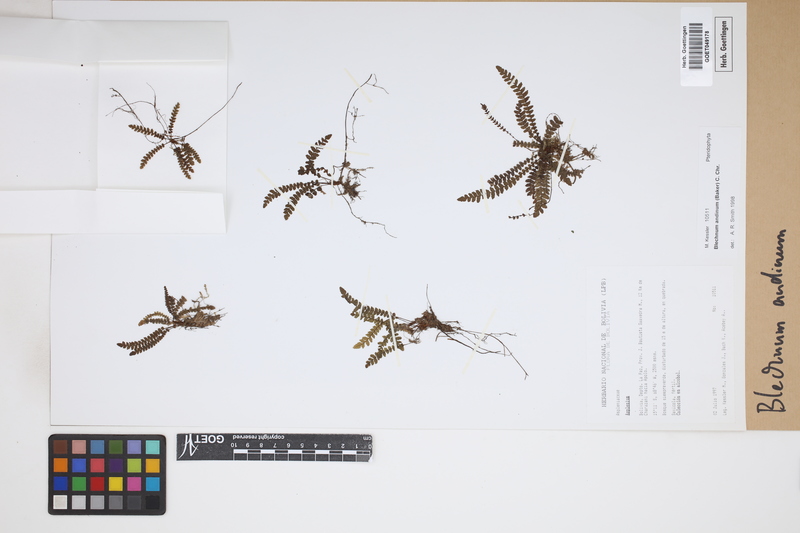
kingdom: Plantae
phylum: Tracheophyta
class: Polypodiopsida
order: Polypodiales
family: Blechnaceae
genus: Austroblechnum
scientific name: Austroblechnum andinum
